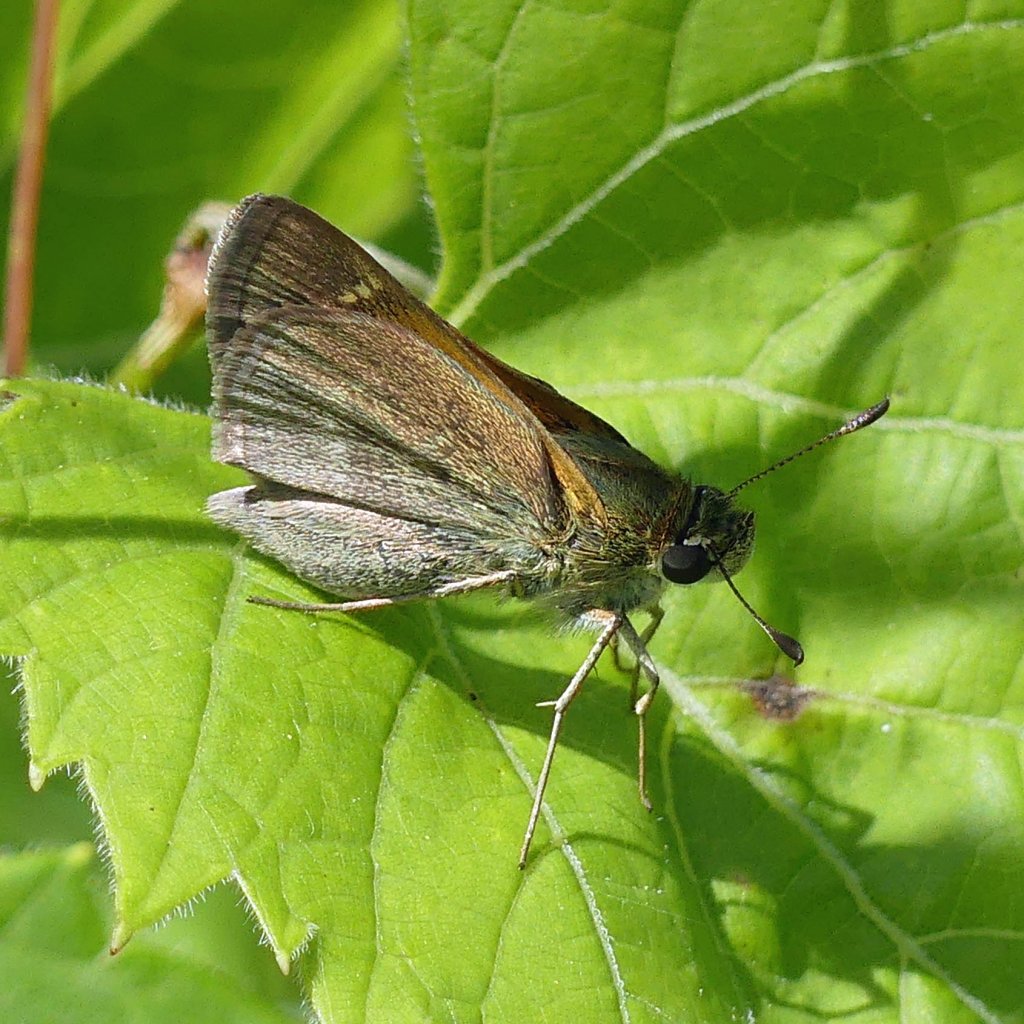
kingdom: Animalia
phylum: Arthropoda
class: Insecta
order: Lepidoptera
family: Hesperiidae
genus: Polites
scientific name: Polites themistocles
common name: Tawny-edged Skipper
